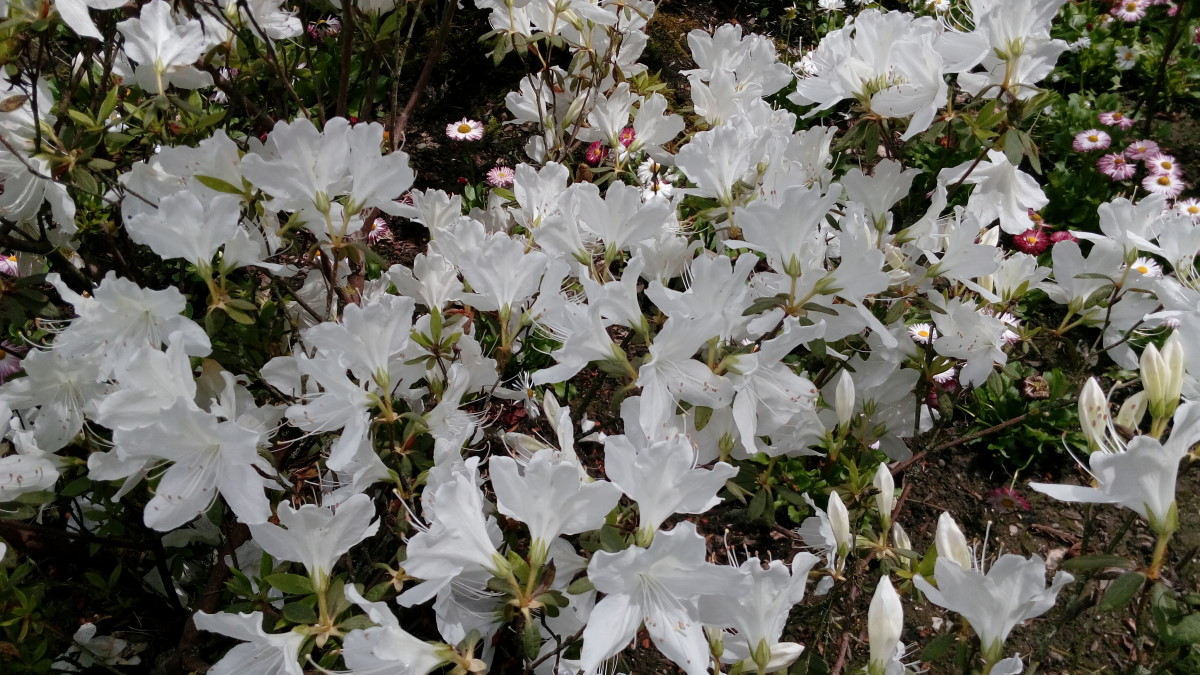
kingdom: Plantae
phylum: Tracheophyta
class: Magnoliopsida
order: Ericales
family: Ericaceae
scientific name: Ericaceae
